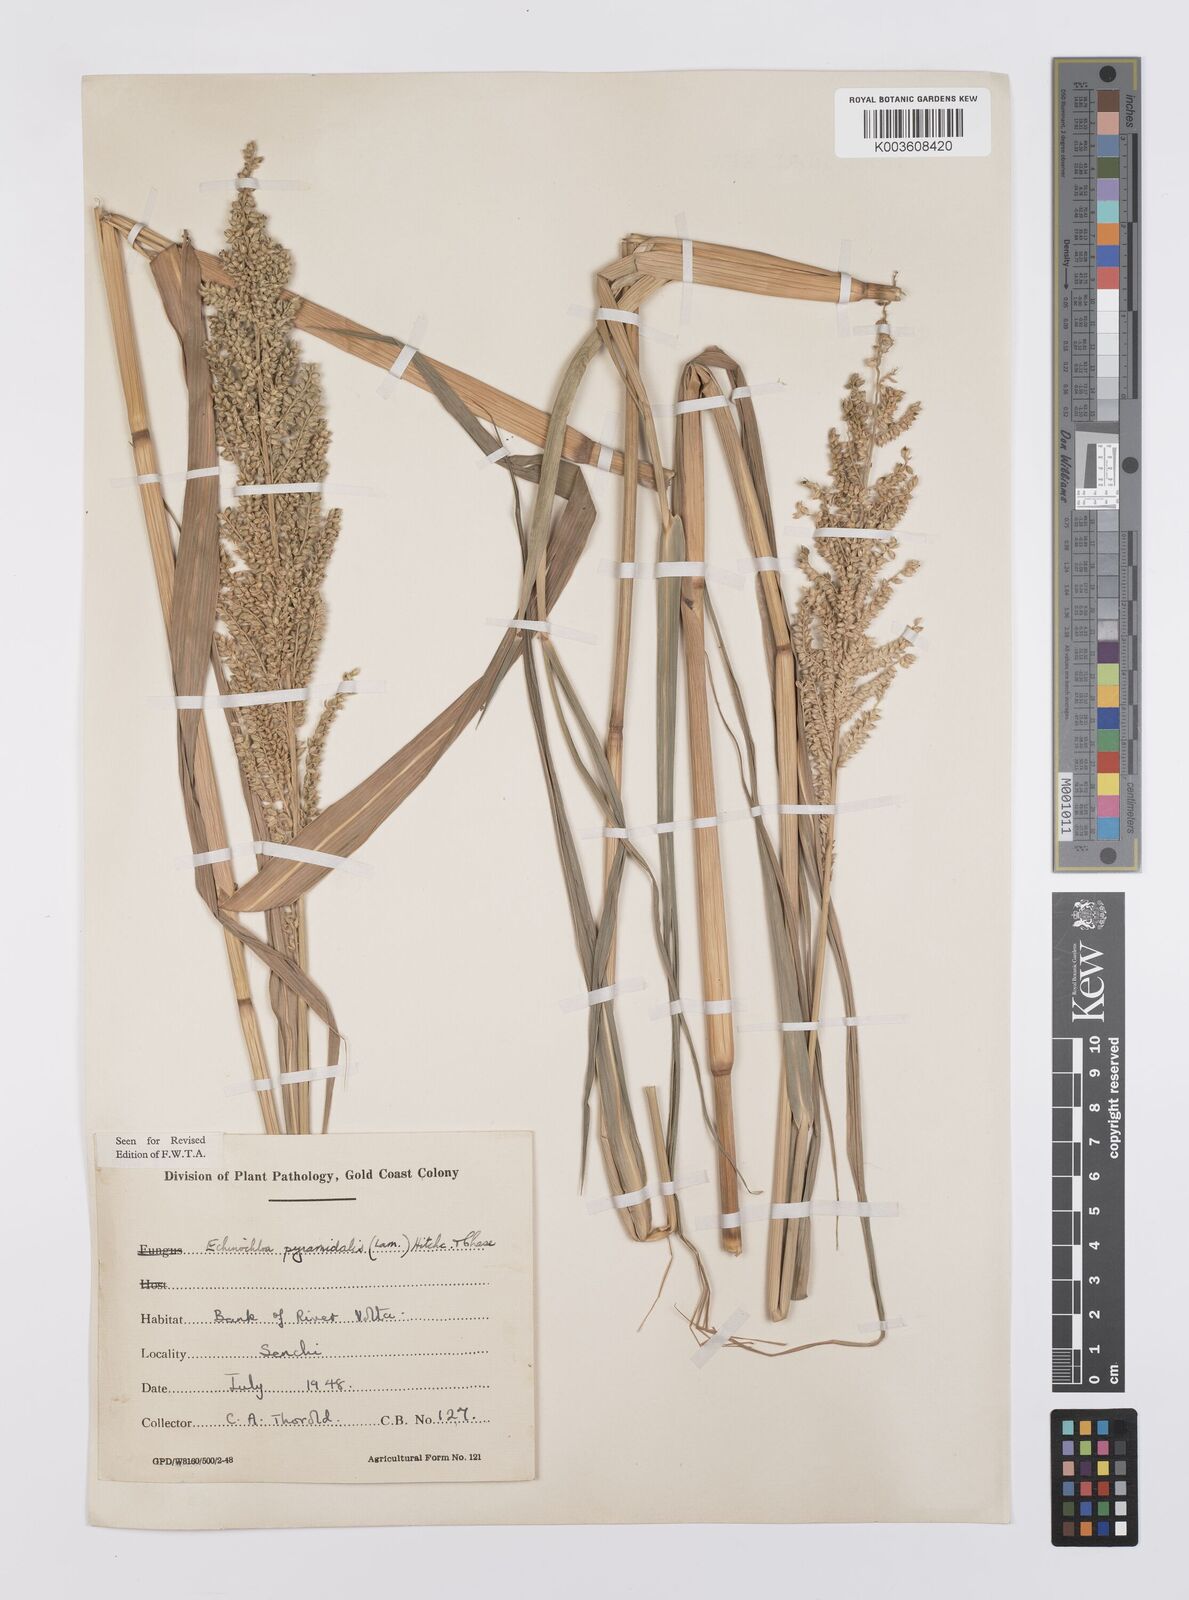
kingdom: Plantae
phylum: Tracheophyta
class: Liliopsida
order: Poales
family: Poaceae
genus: Echinochloa
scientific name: Echinochloa pyramidalis
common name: Antelope grass
